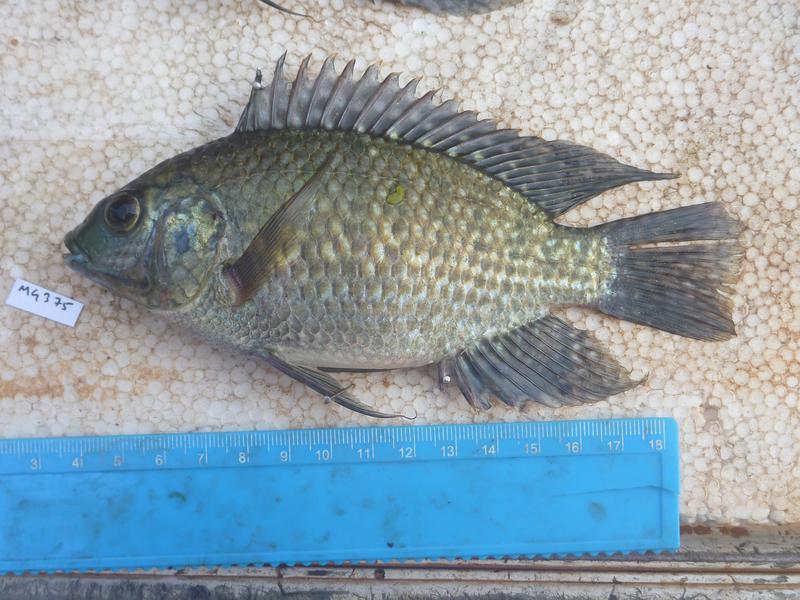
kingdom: Animalia
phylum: Chordata
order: Perciformes
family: Cichlidae
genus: Oreochromis
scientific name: Oreochromis leucostictus
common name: Blue spotted tilapia
